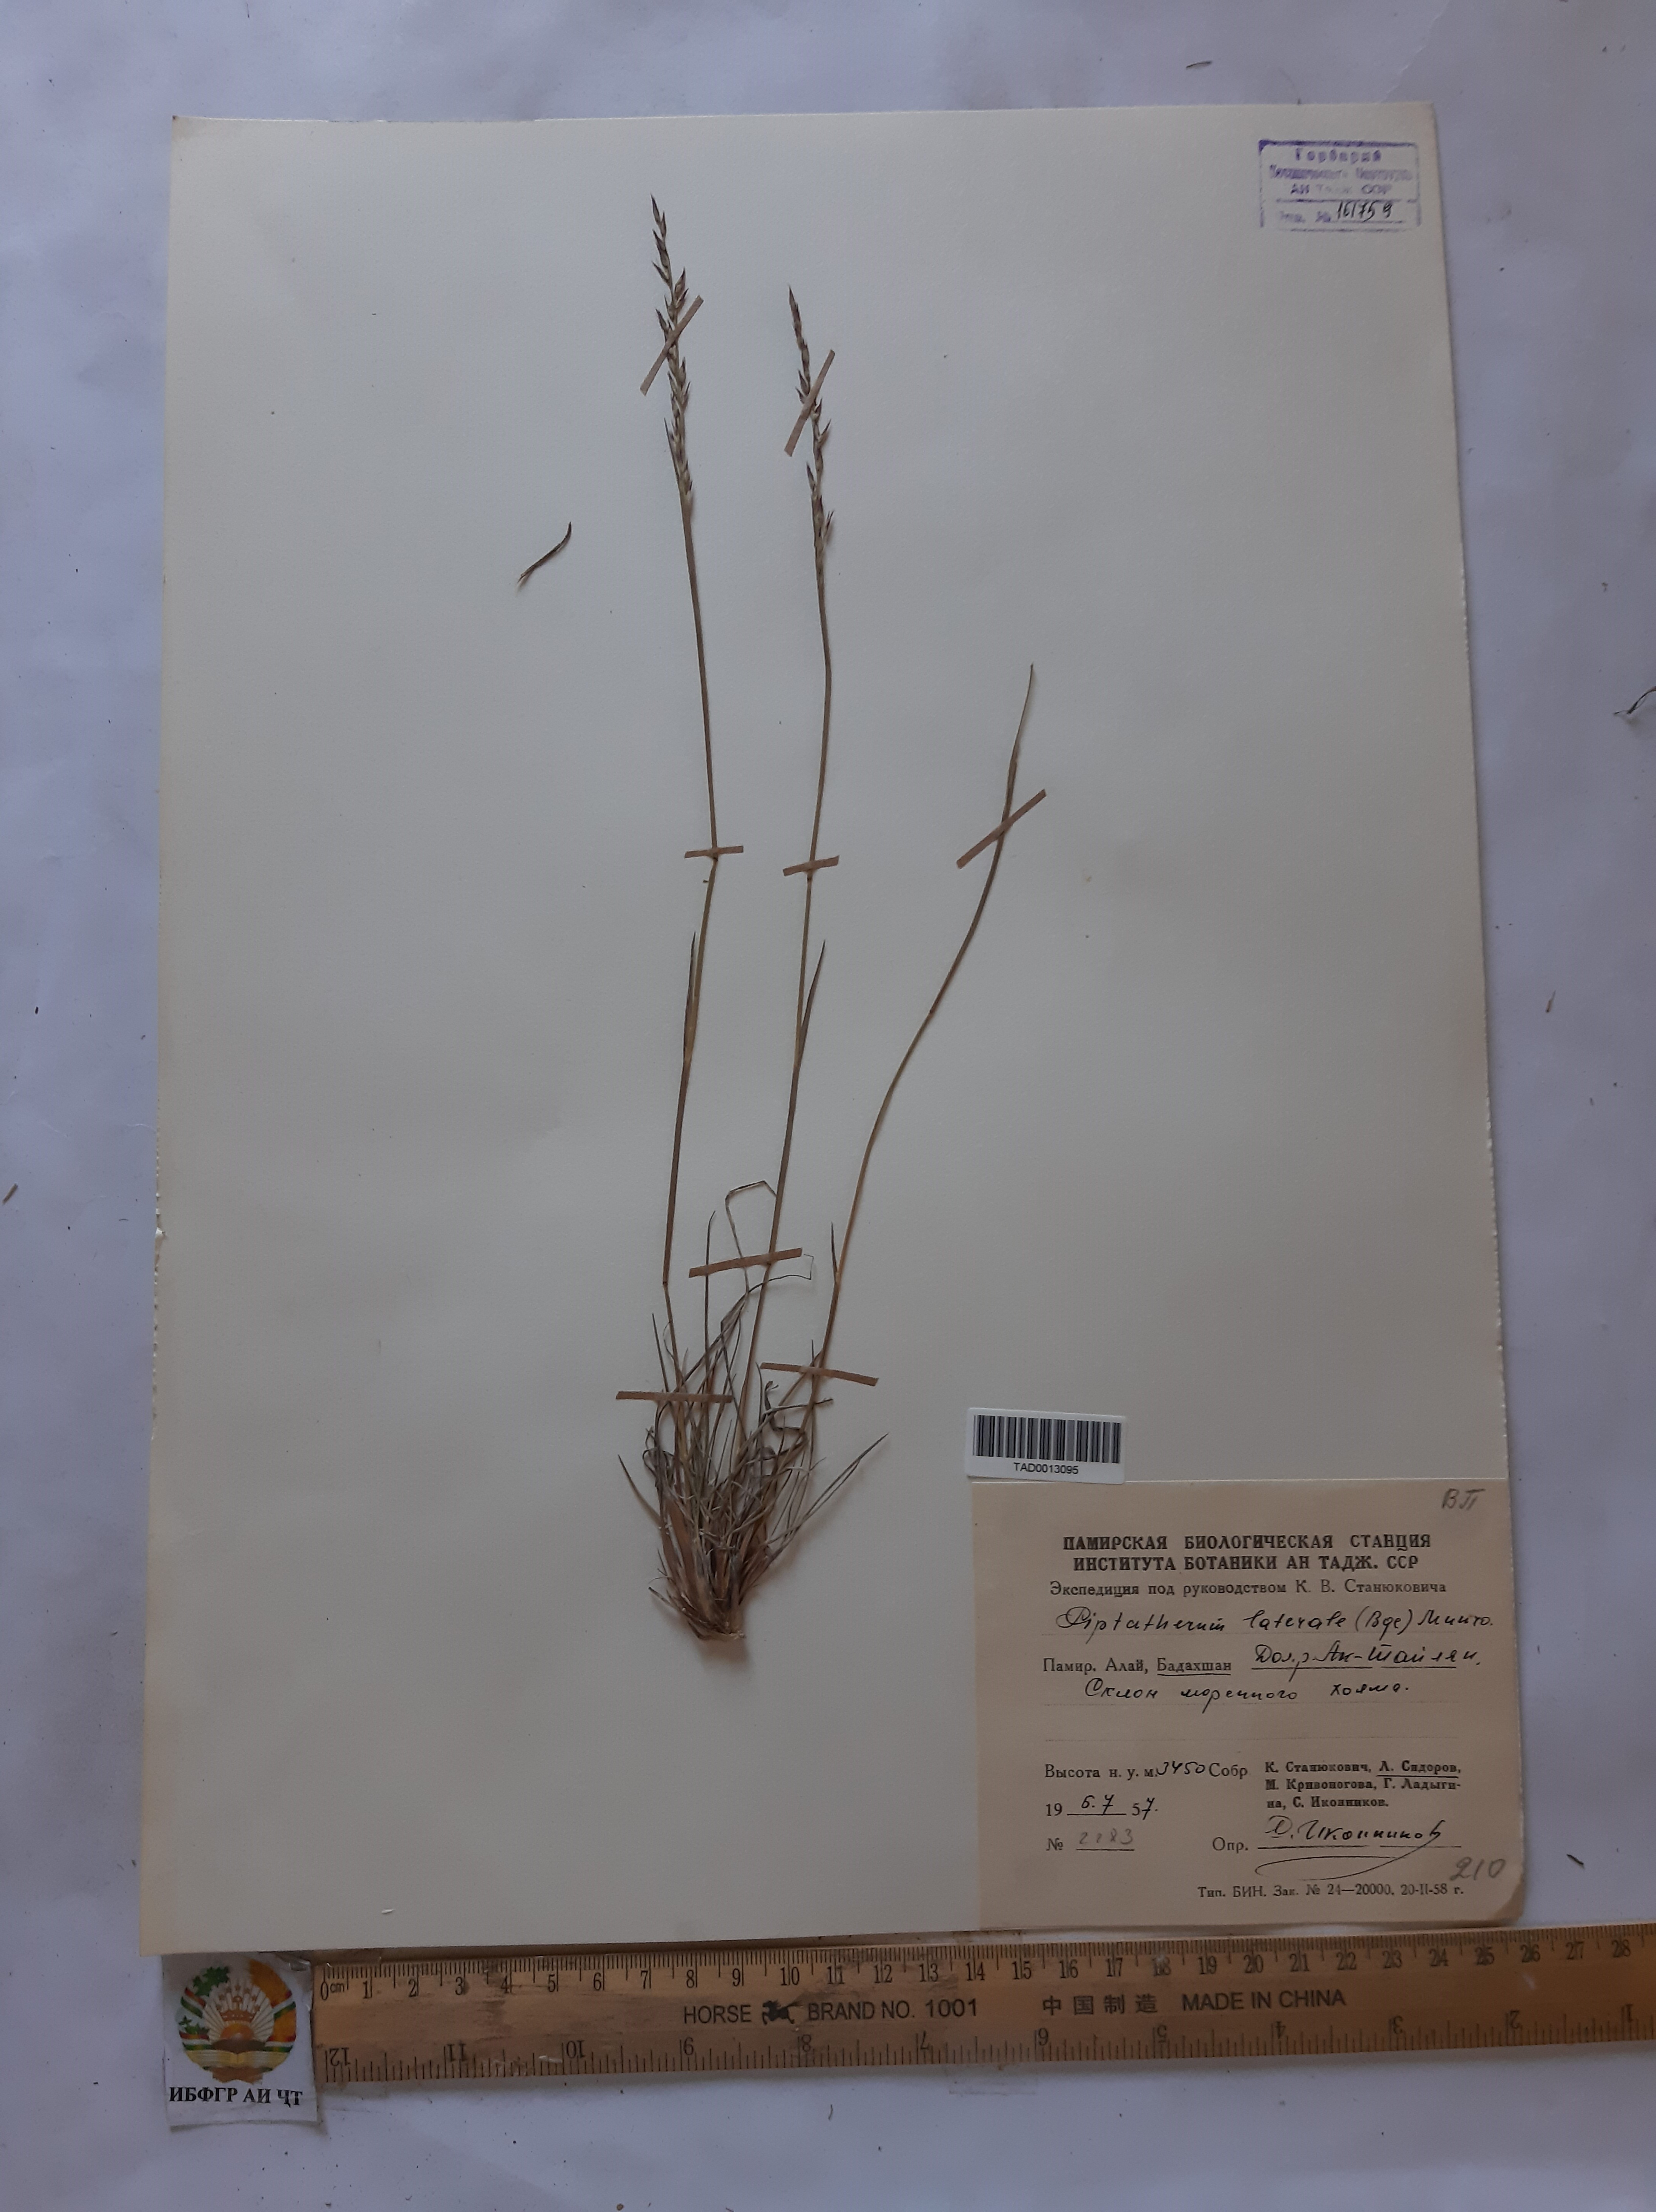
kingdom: Plantae
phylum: Tracheophyta
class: Liliopsida
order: Poales
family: Poaceae
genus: Piptatherum
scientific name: Piptatherum laterale
